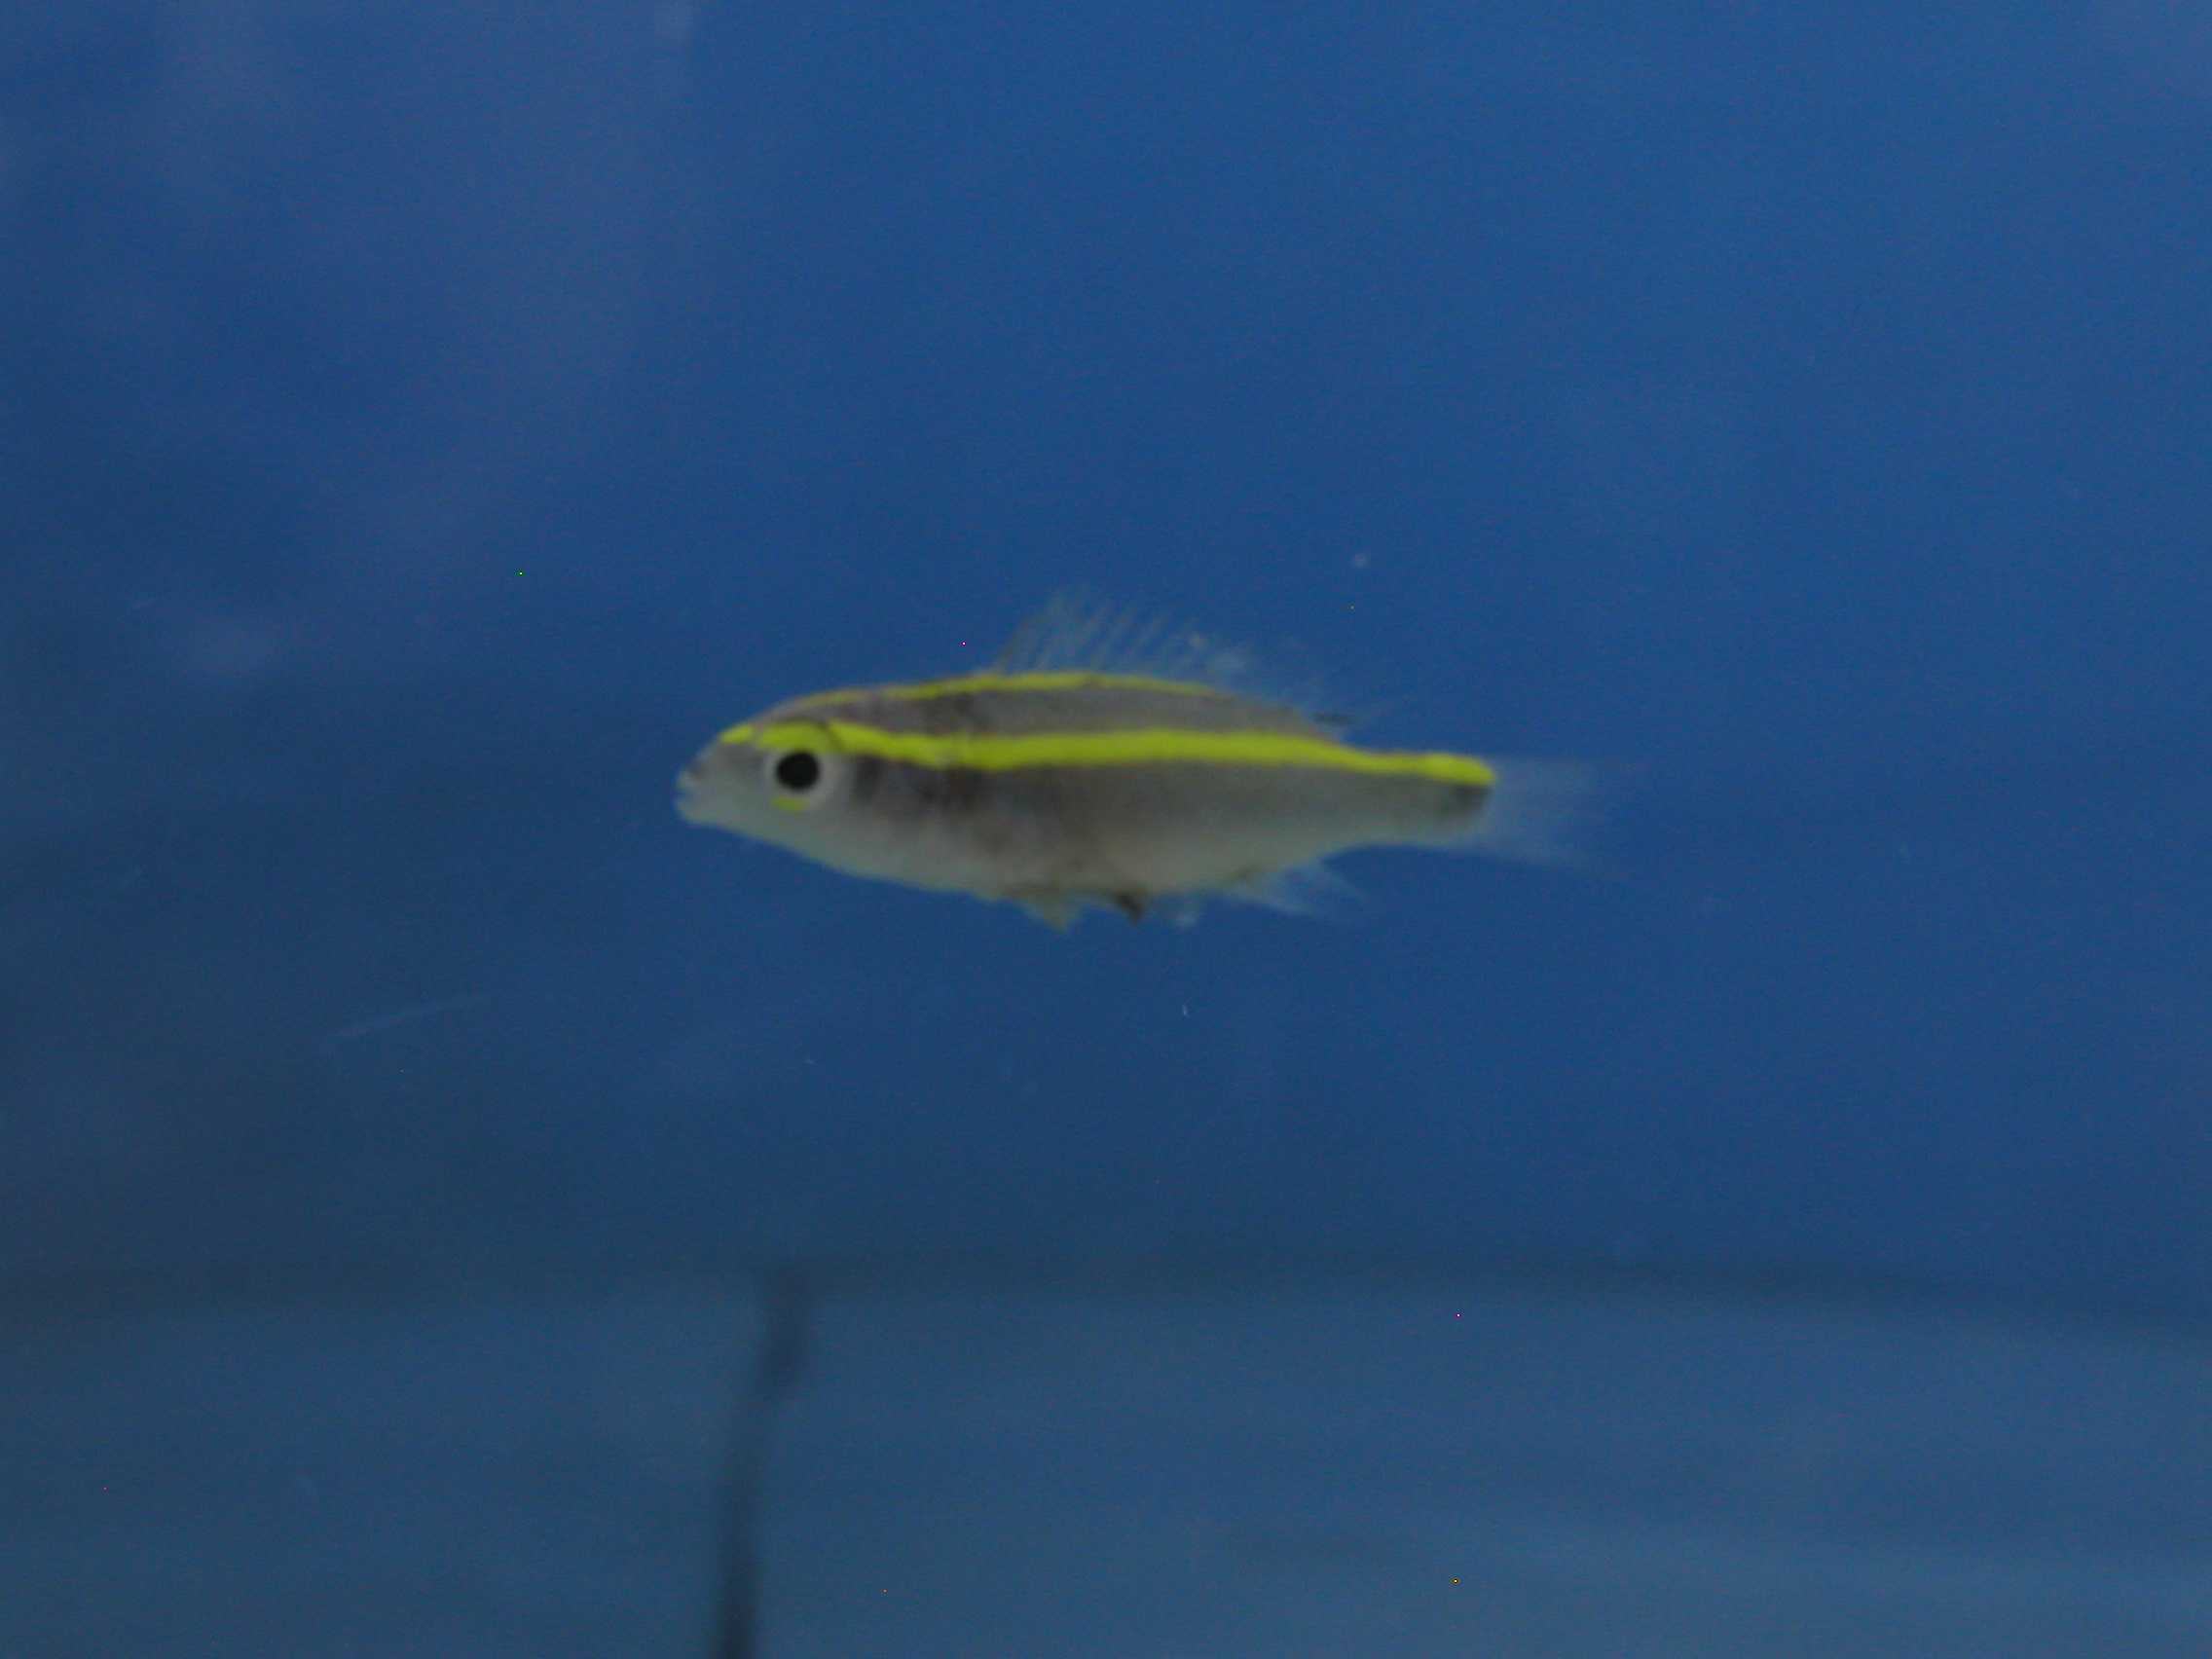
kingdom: Animalia
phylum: Chordata
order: Perciformes
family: Nemipteridae
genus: Scolopsis
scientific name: Scolopsis frenata
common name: Bridled monocle bream
